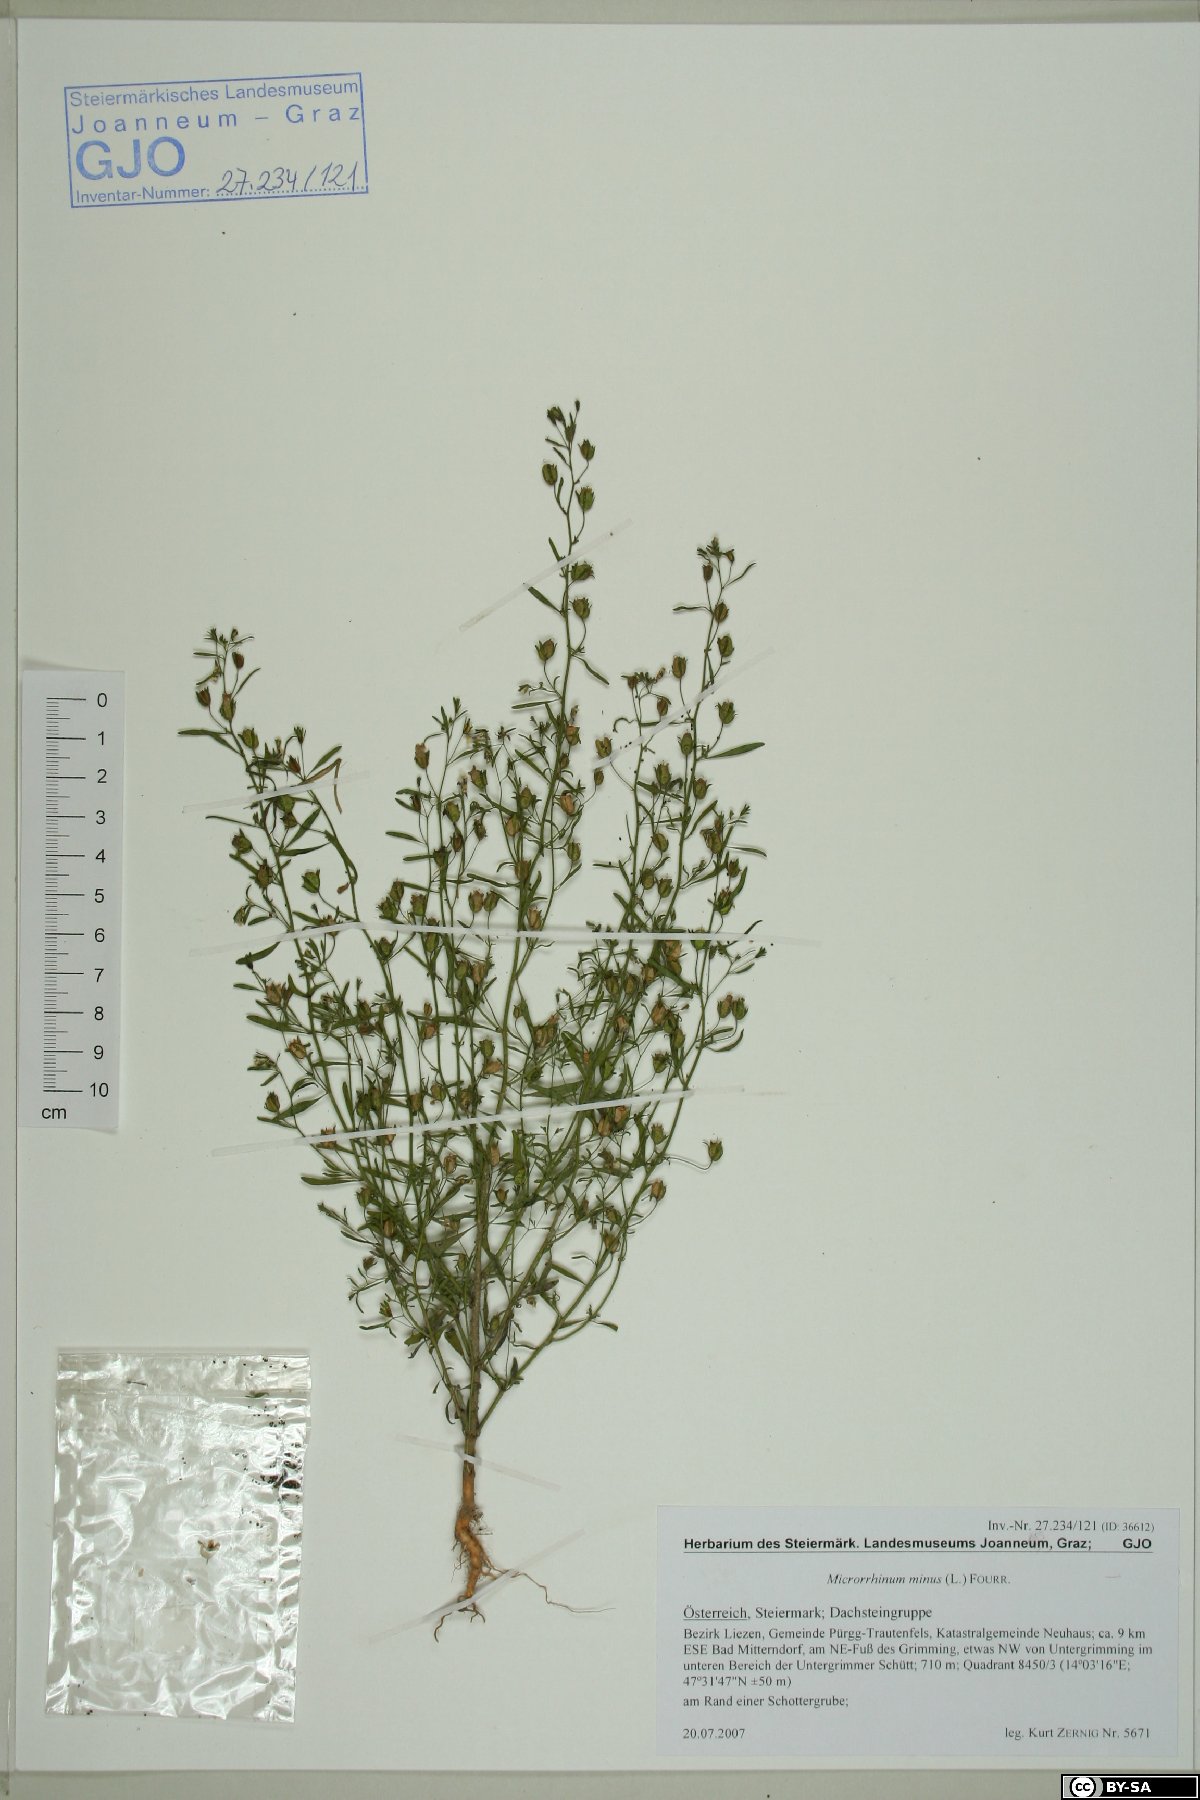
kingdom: Plantae
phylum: Tracheophyta
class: Magnoliopsida
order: Lamiales
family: Plantaginaceae
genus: Chaenorhinum
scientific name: Chaenorhinum minus
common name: Dwarf snapdragon
